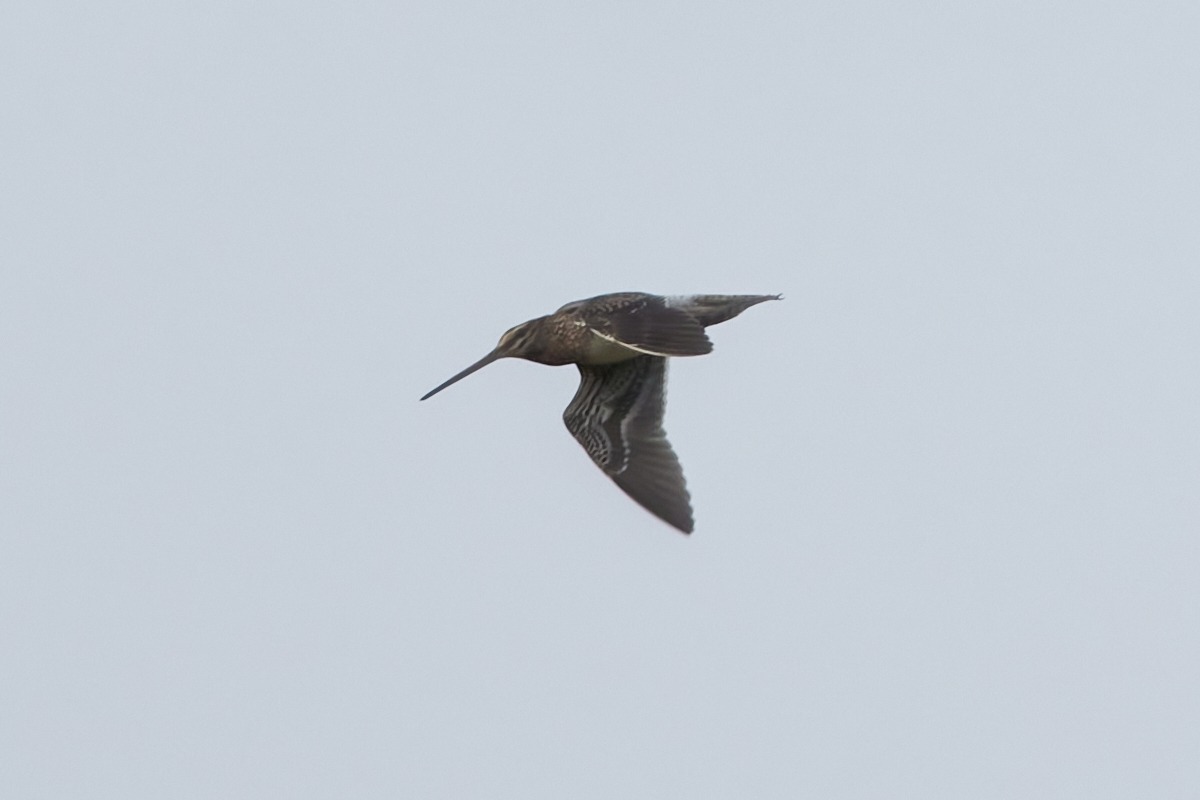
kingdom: Animalia
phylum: Chordata
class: Aves
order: Charadriiformes
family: Scolopacidae
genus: Gallinago
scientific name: Gallinago gallinago
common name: Dobbeltbekkasin
